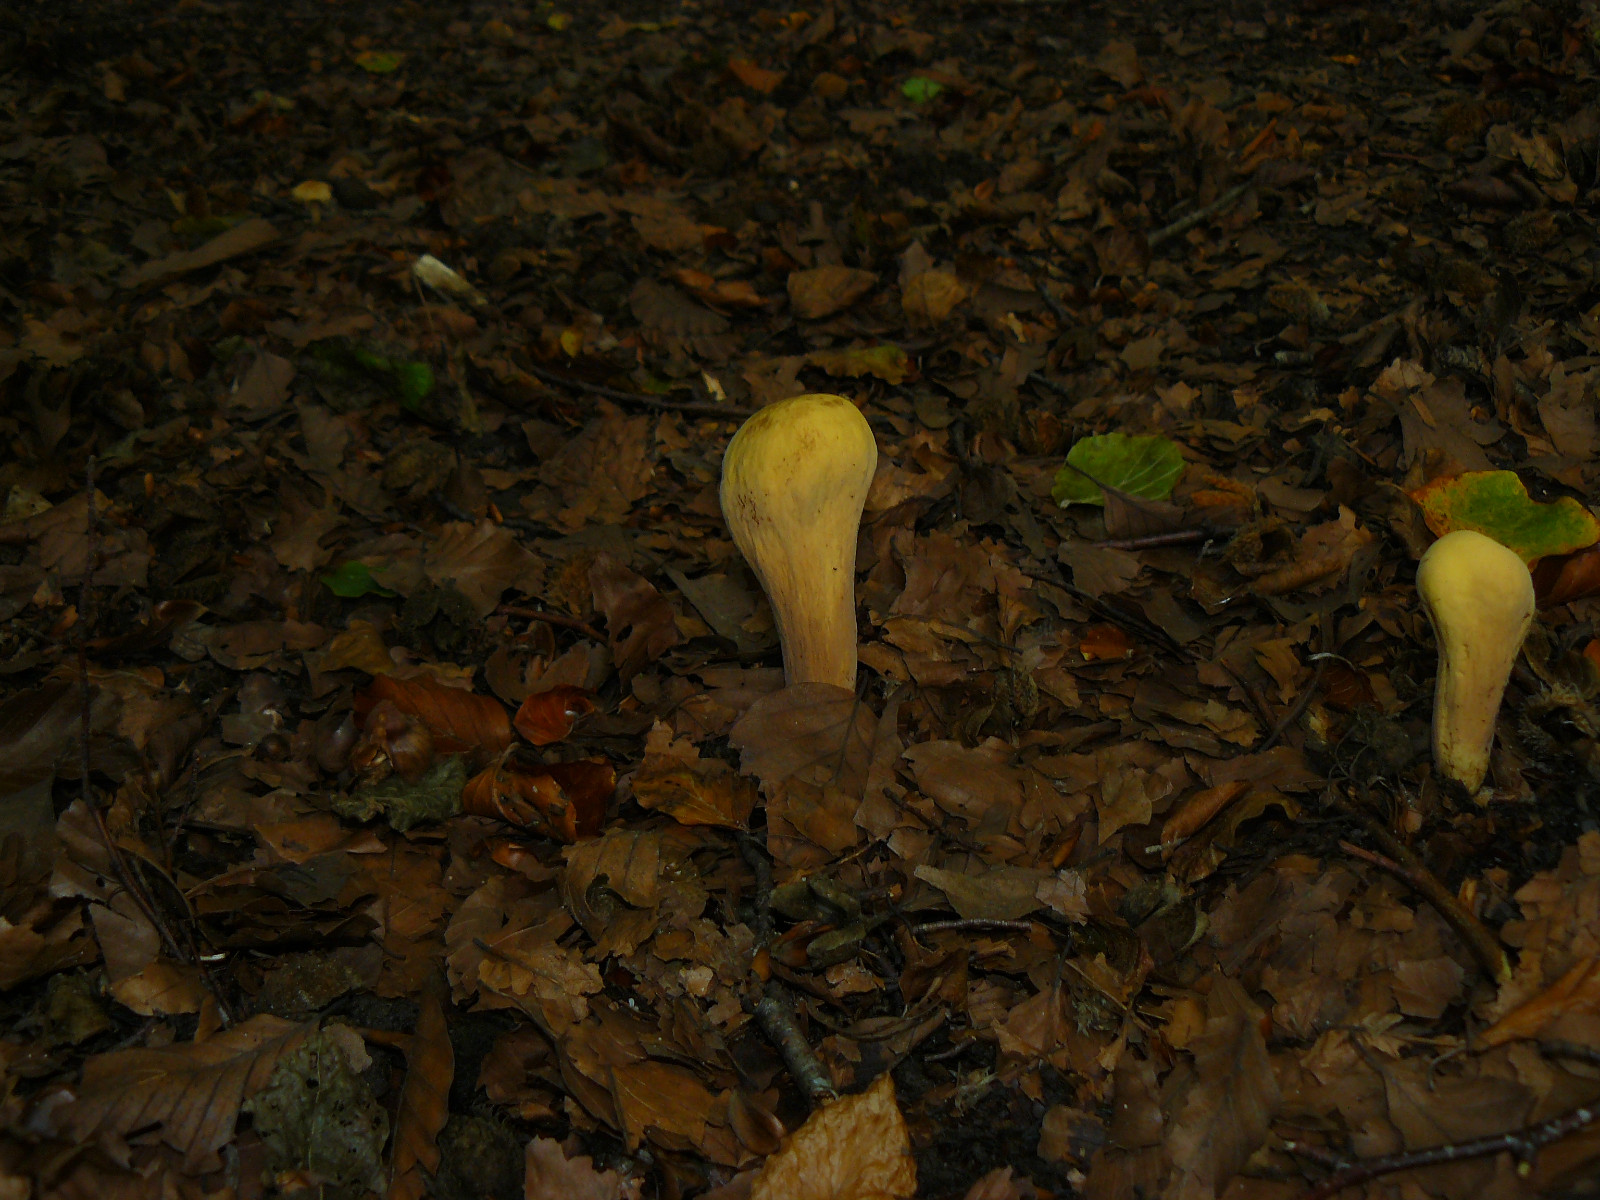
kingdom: Fungi
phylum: Basidiomycota
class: Agaricomycetes
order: Gomphales
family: Clavariadelphaceae
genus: Clavariadelphus
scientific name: Clavariadelphus pistillaris
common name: herkules-kæmpekølle
